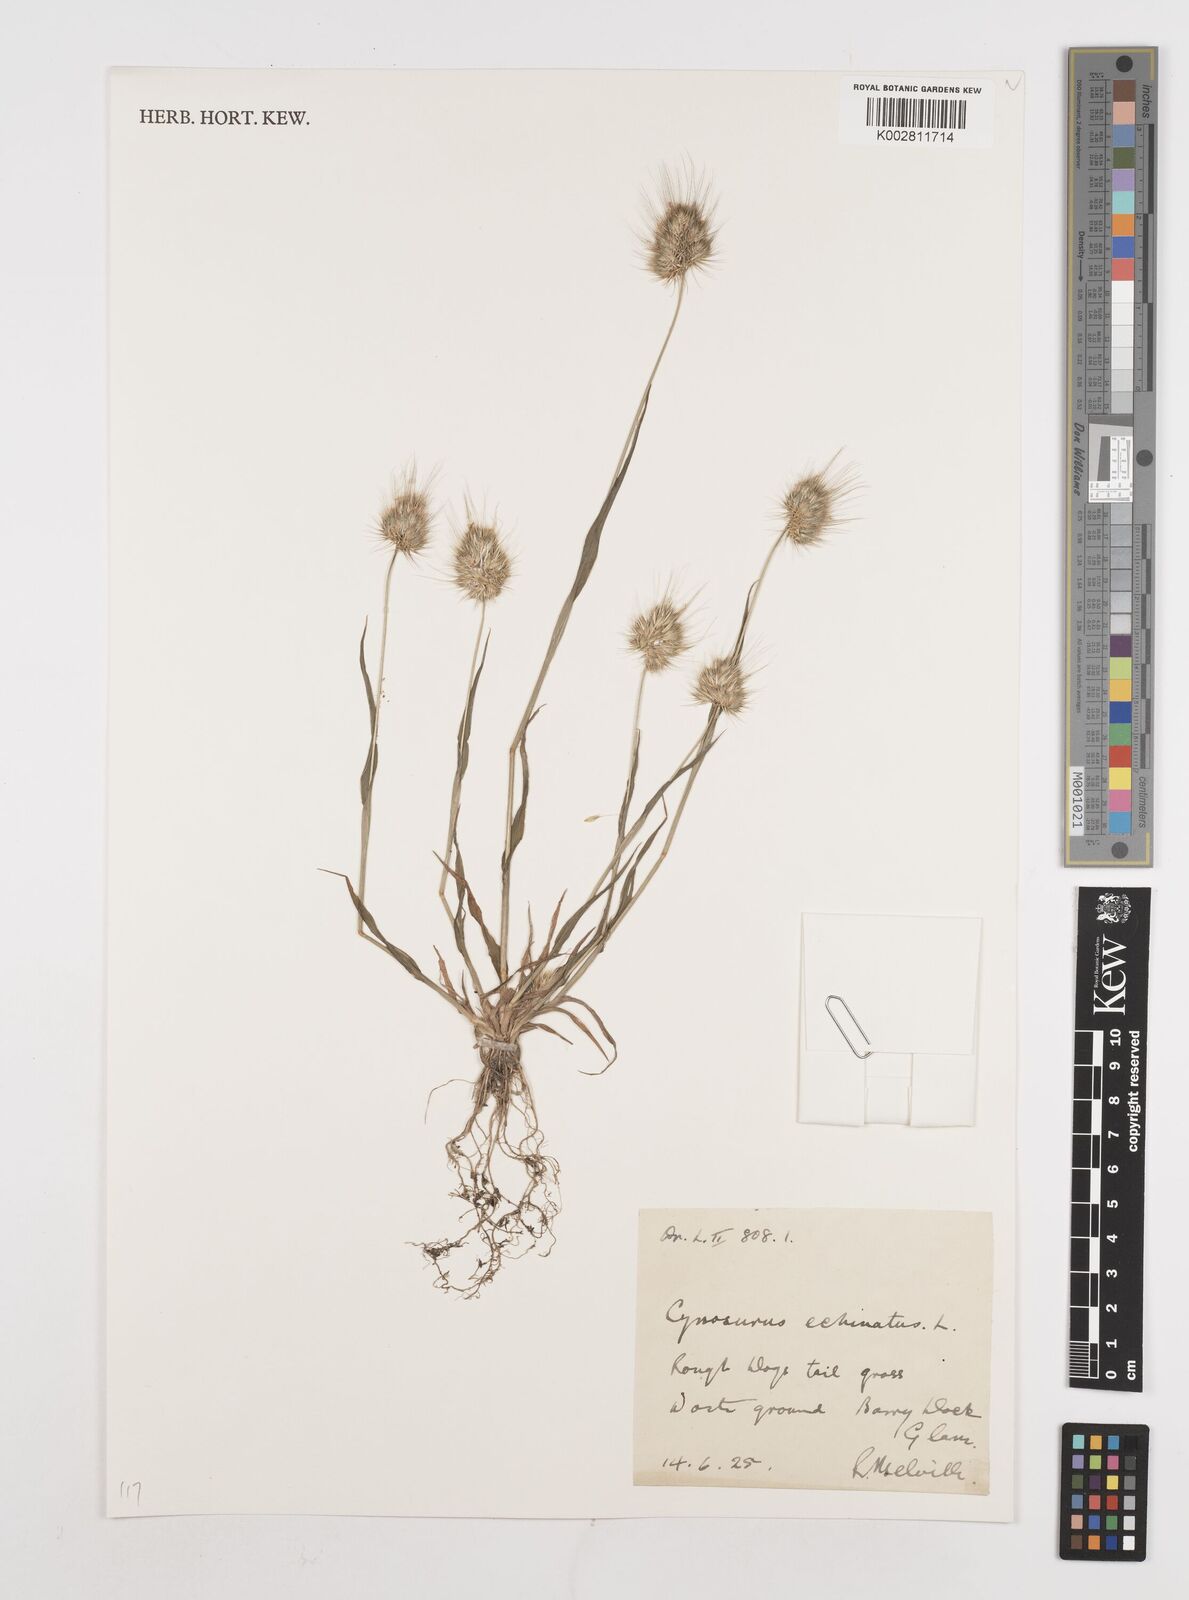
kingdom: Plantae
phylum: Tracheophyta
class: Liliopsida
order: Poales
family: Poaceae
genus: Cynosurus
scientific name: Cynosurus echinatus
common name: Rough dog's-tail
